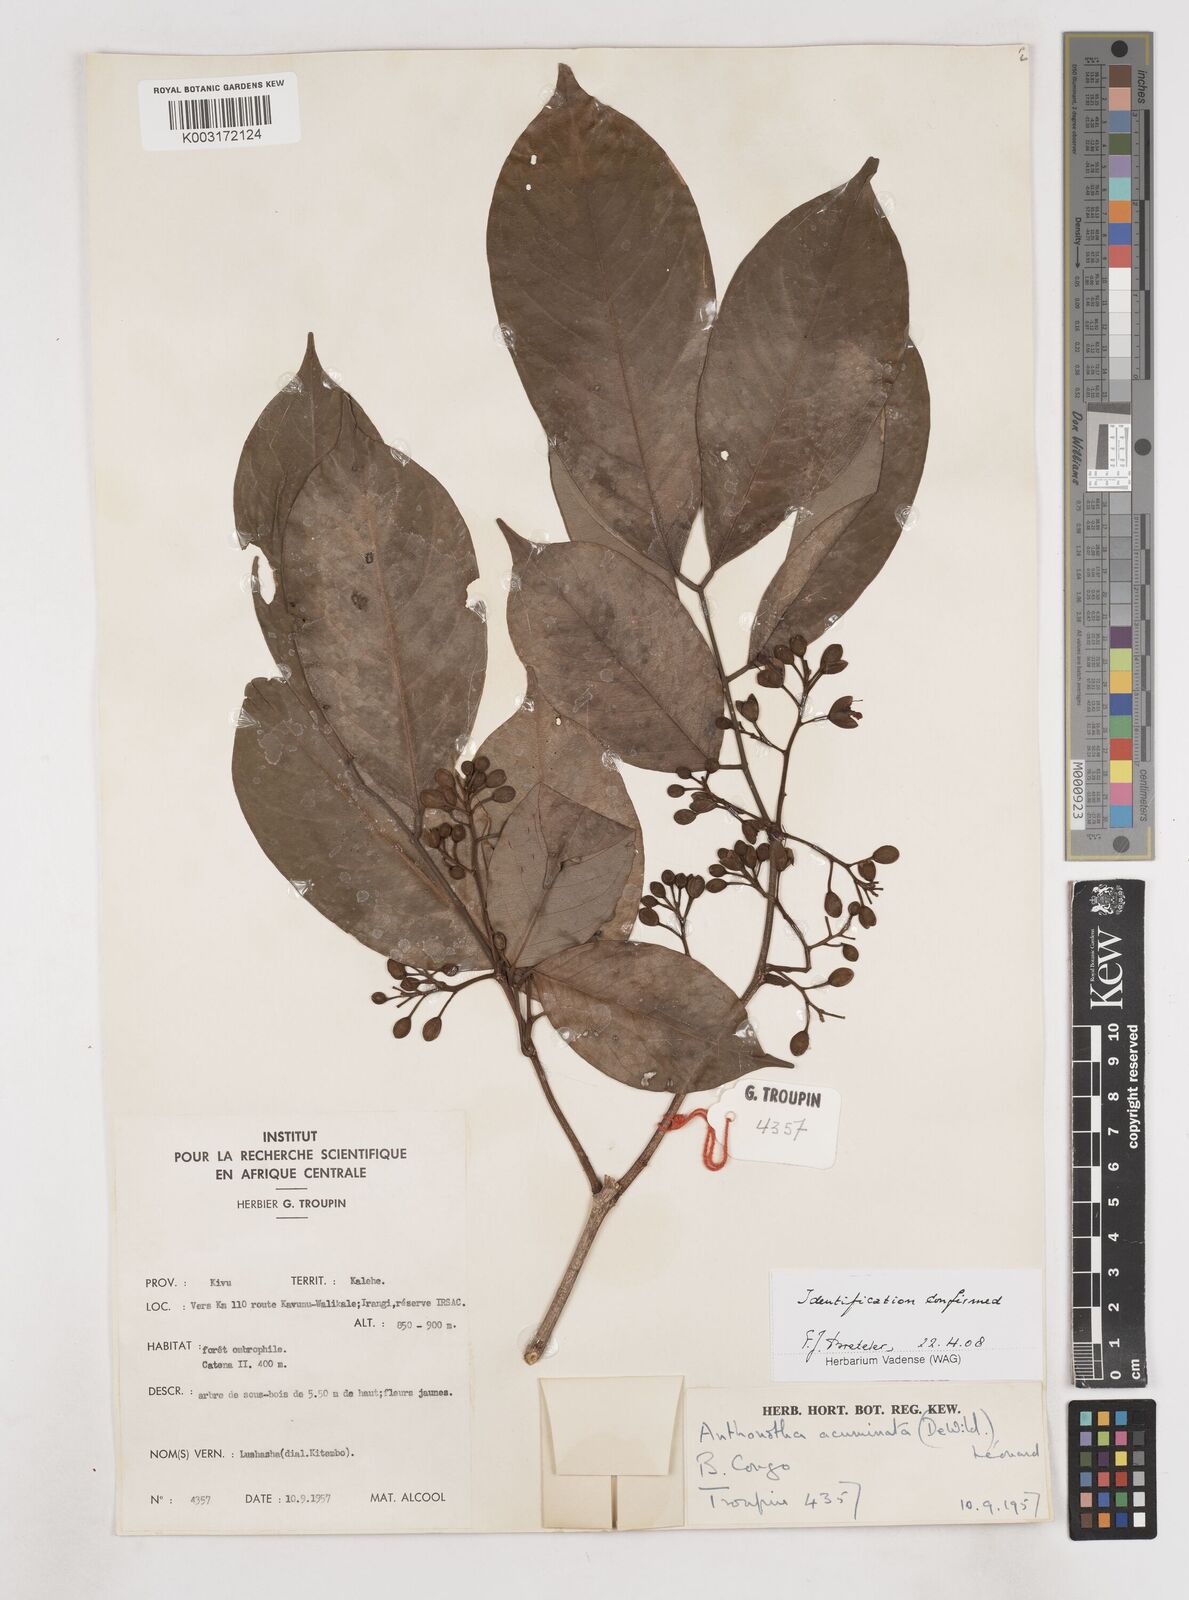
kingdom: Plantae
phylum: Tracheophyta
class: Magnoliopsida
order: Fabales
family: Fabaceae
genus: Anthonotha
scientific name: Anthonotha acuminata
